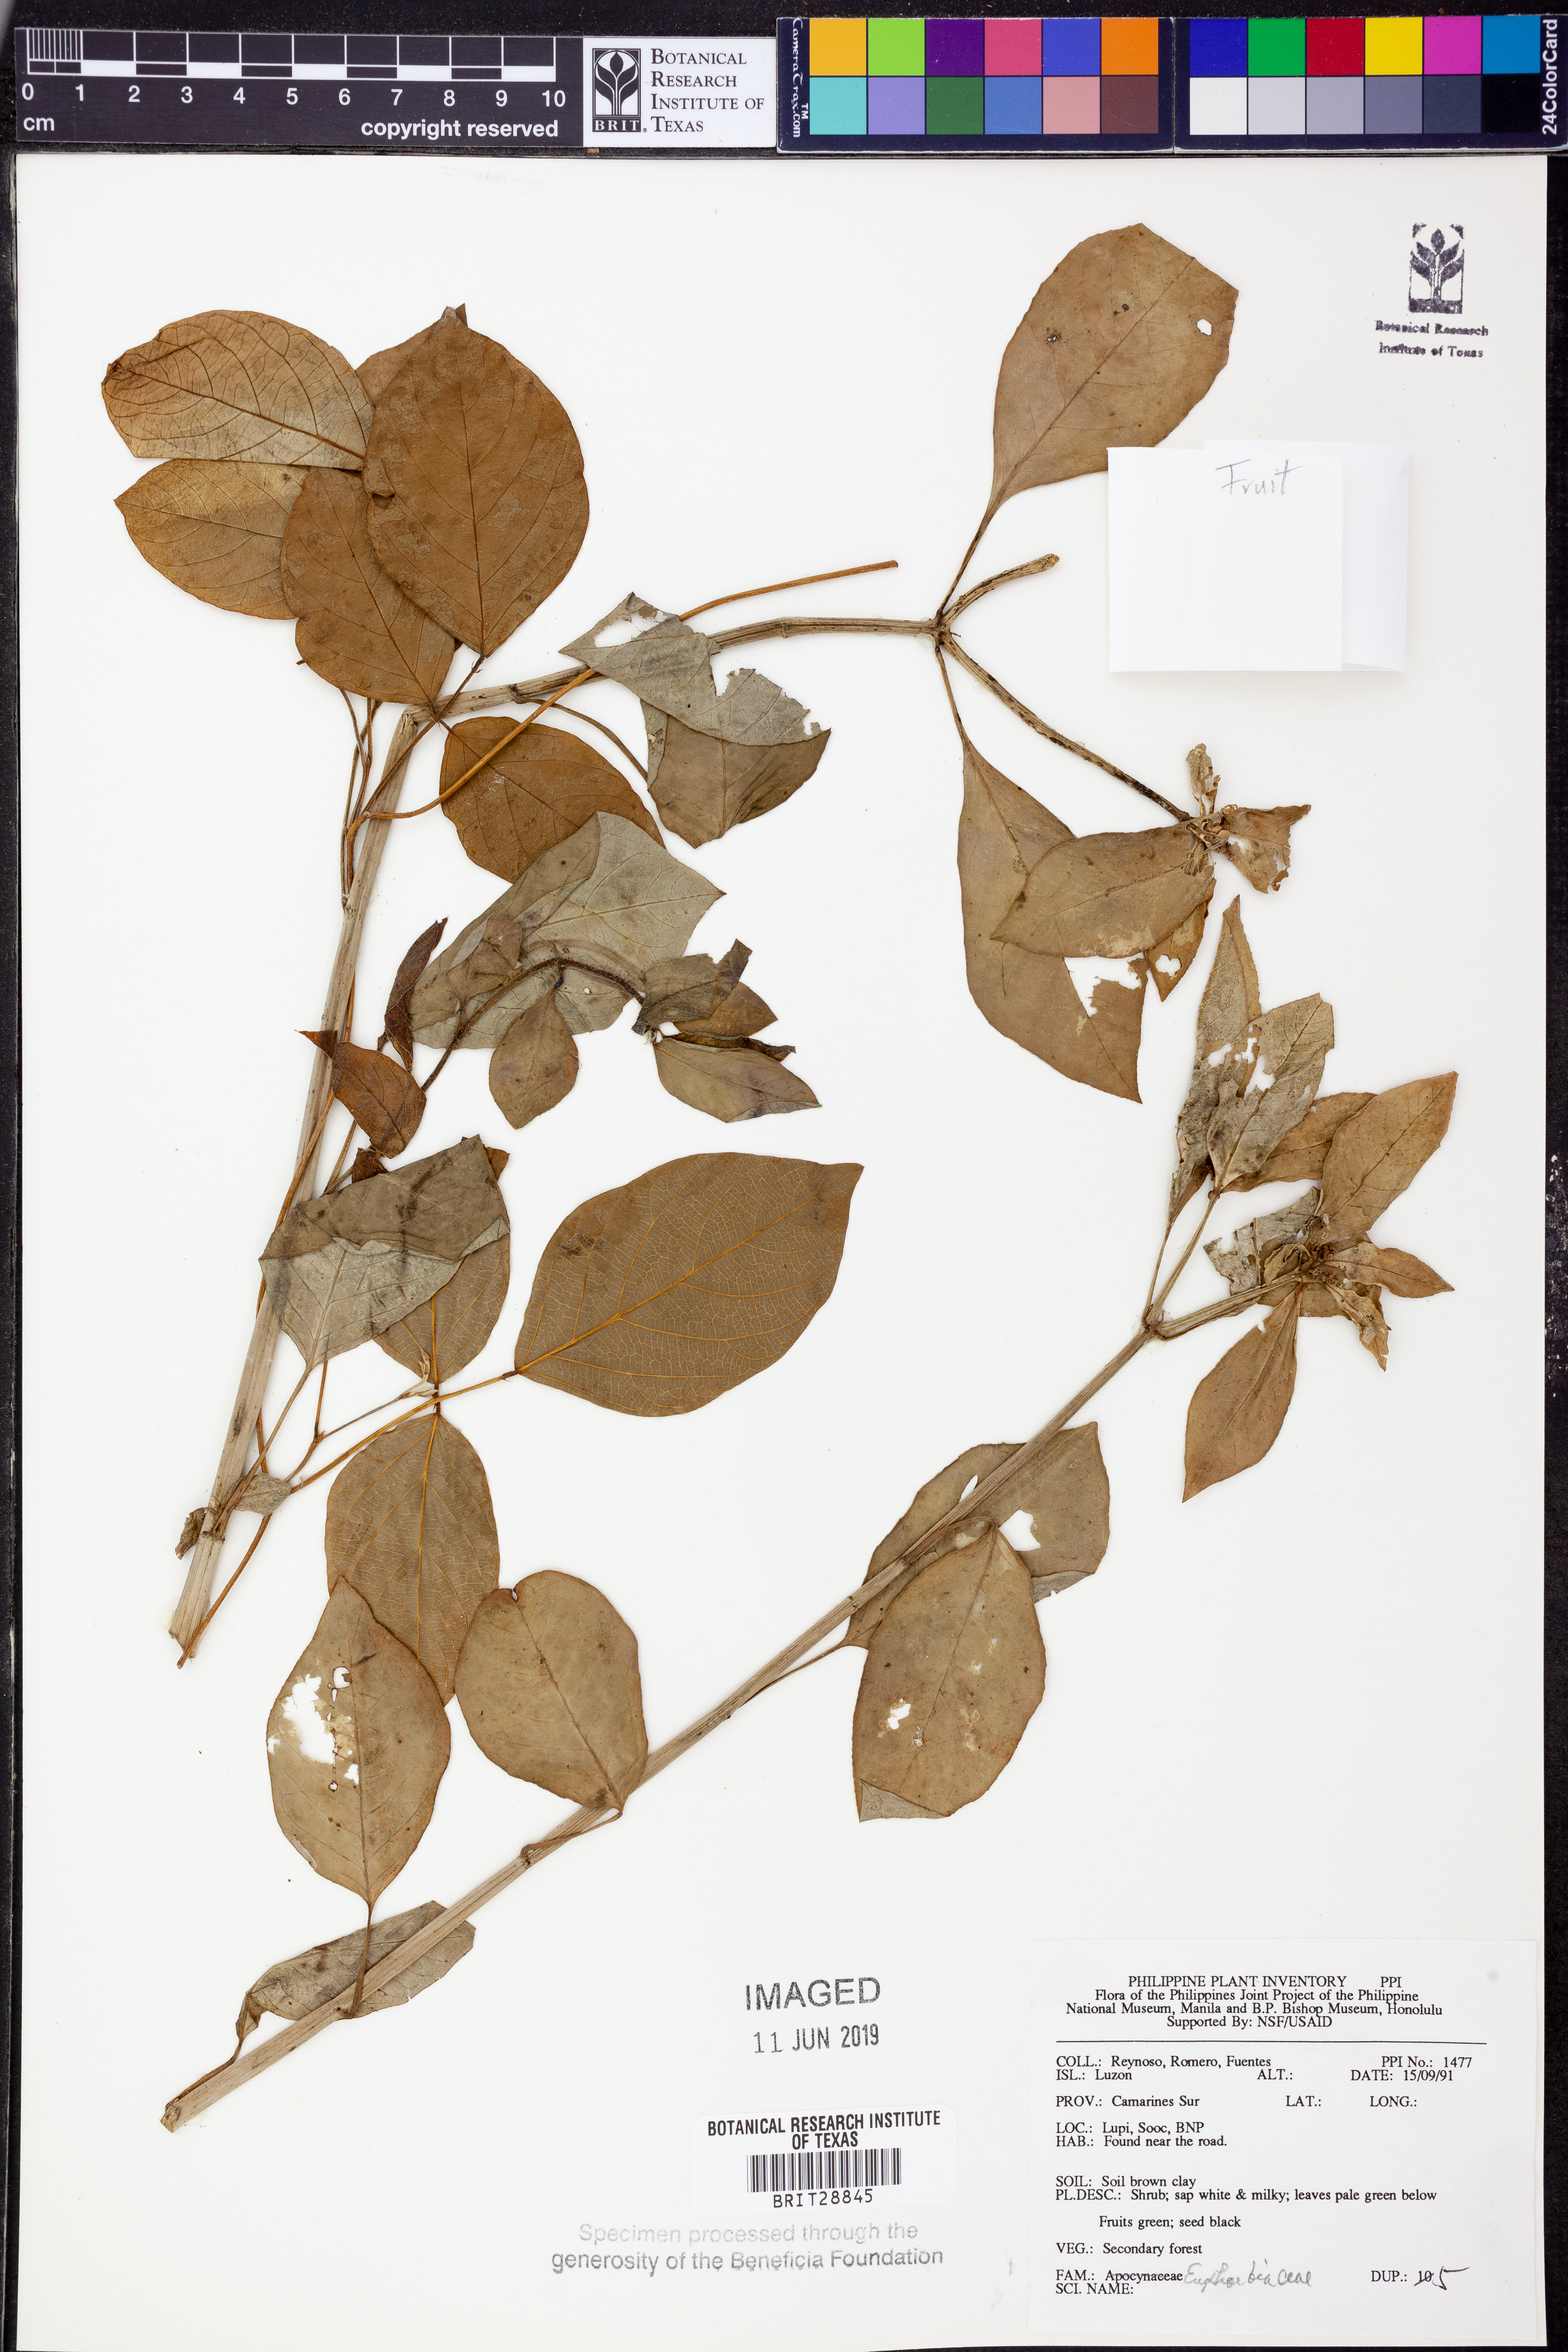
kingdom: Plantae
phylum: Tracheophyta
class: Magnoliopsida
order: Malpighiales
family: Euphorbiaceae
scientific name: Euphorbiaceae
